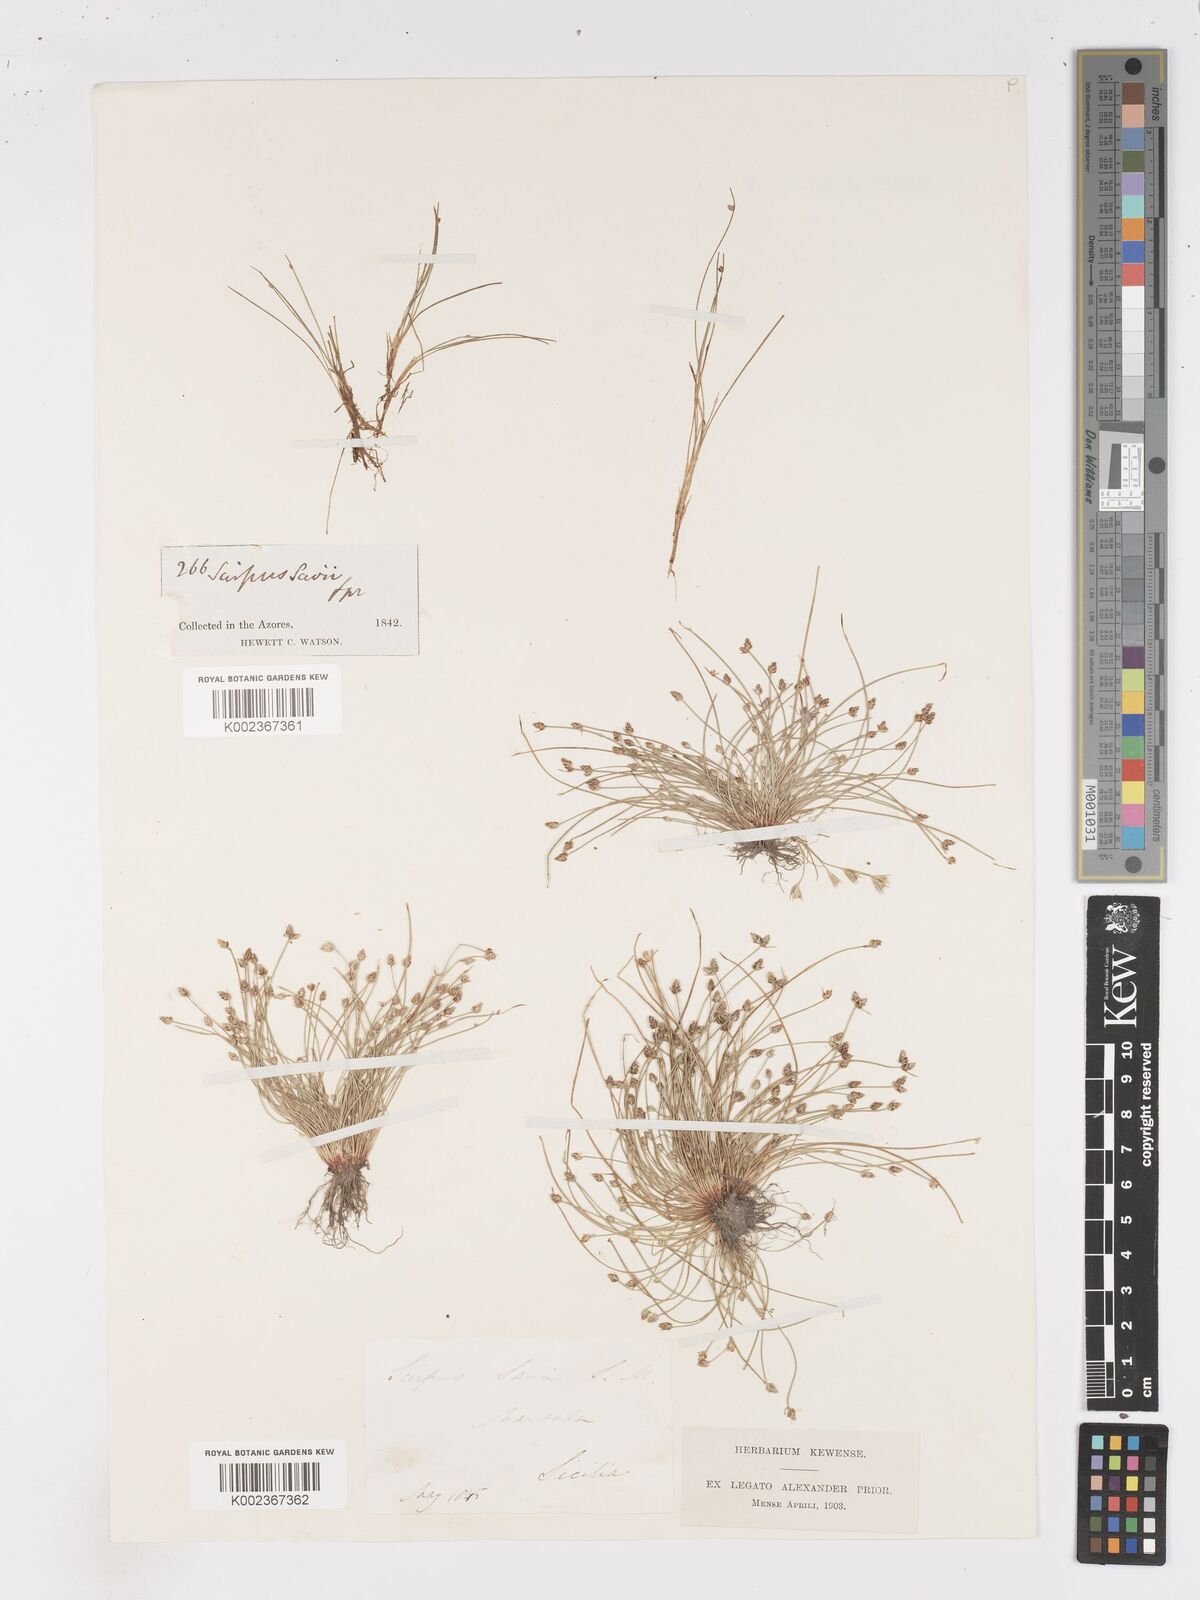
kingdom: Plantae
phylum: Tracheophyta
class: Liliopsida
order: Poales
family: Cyperaceae
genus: Isolepis
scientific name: Isolepis cernua
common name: Slender club-rush
